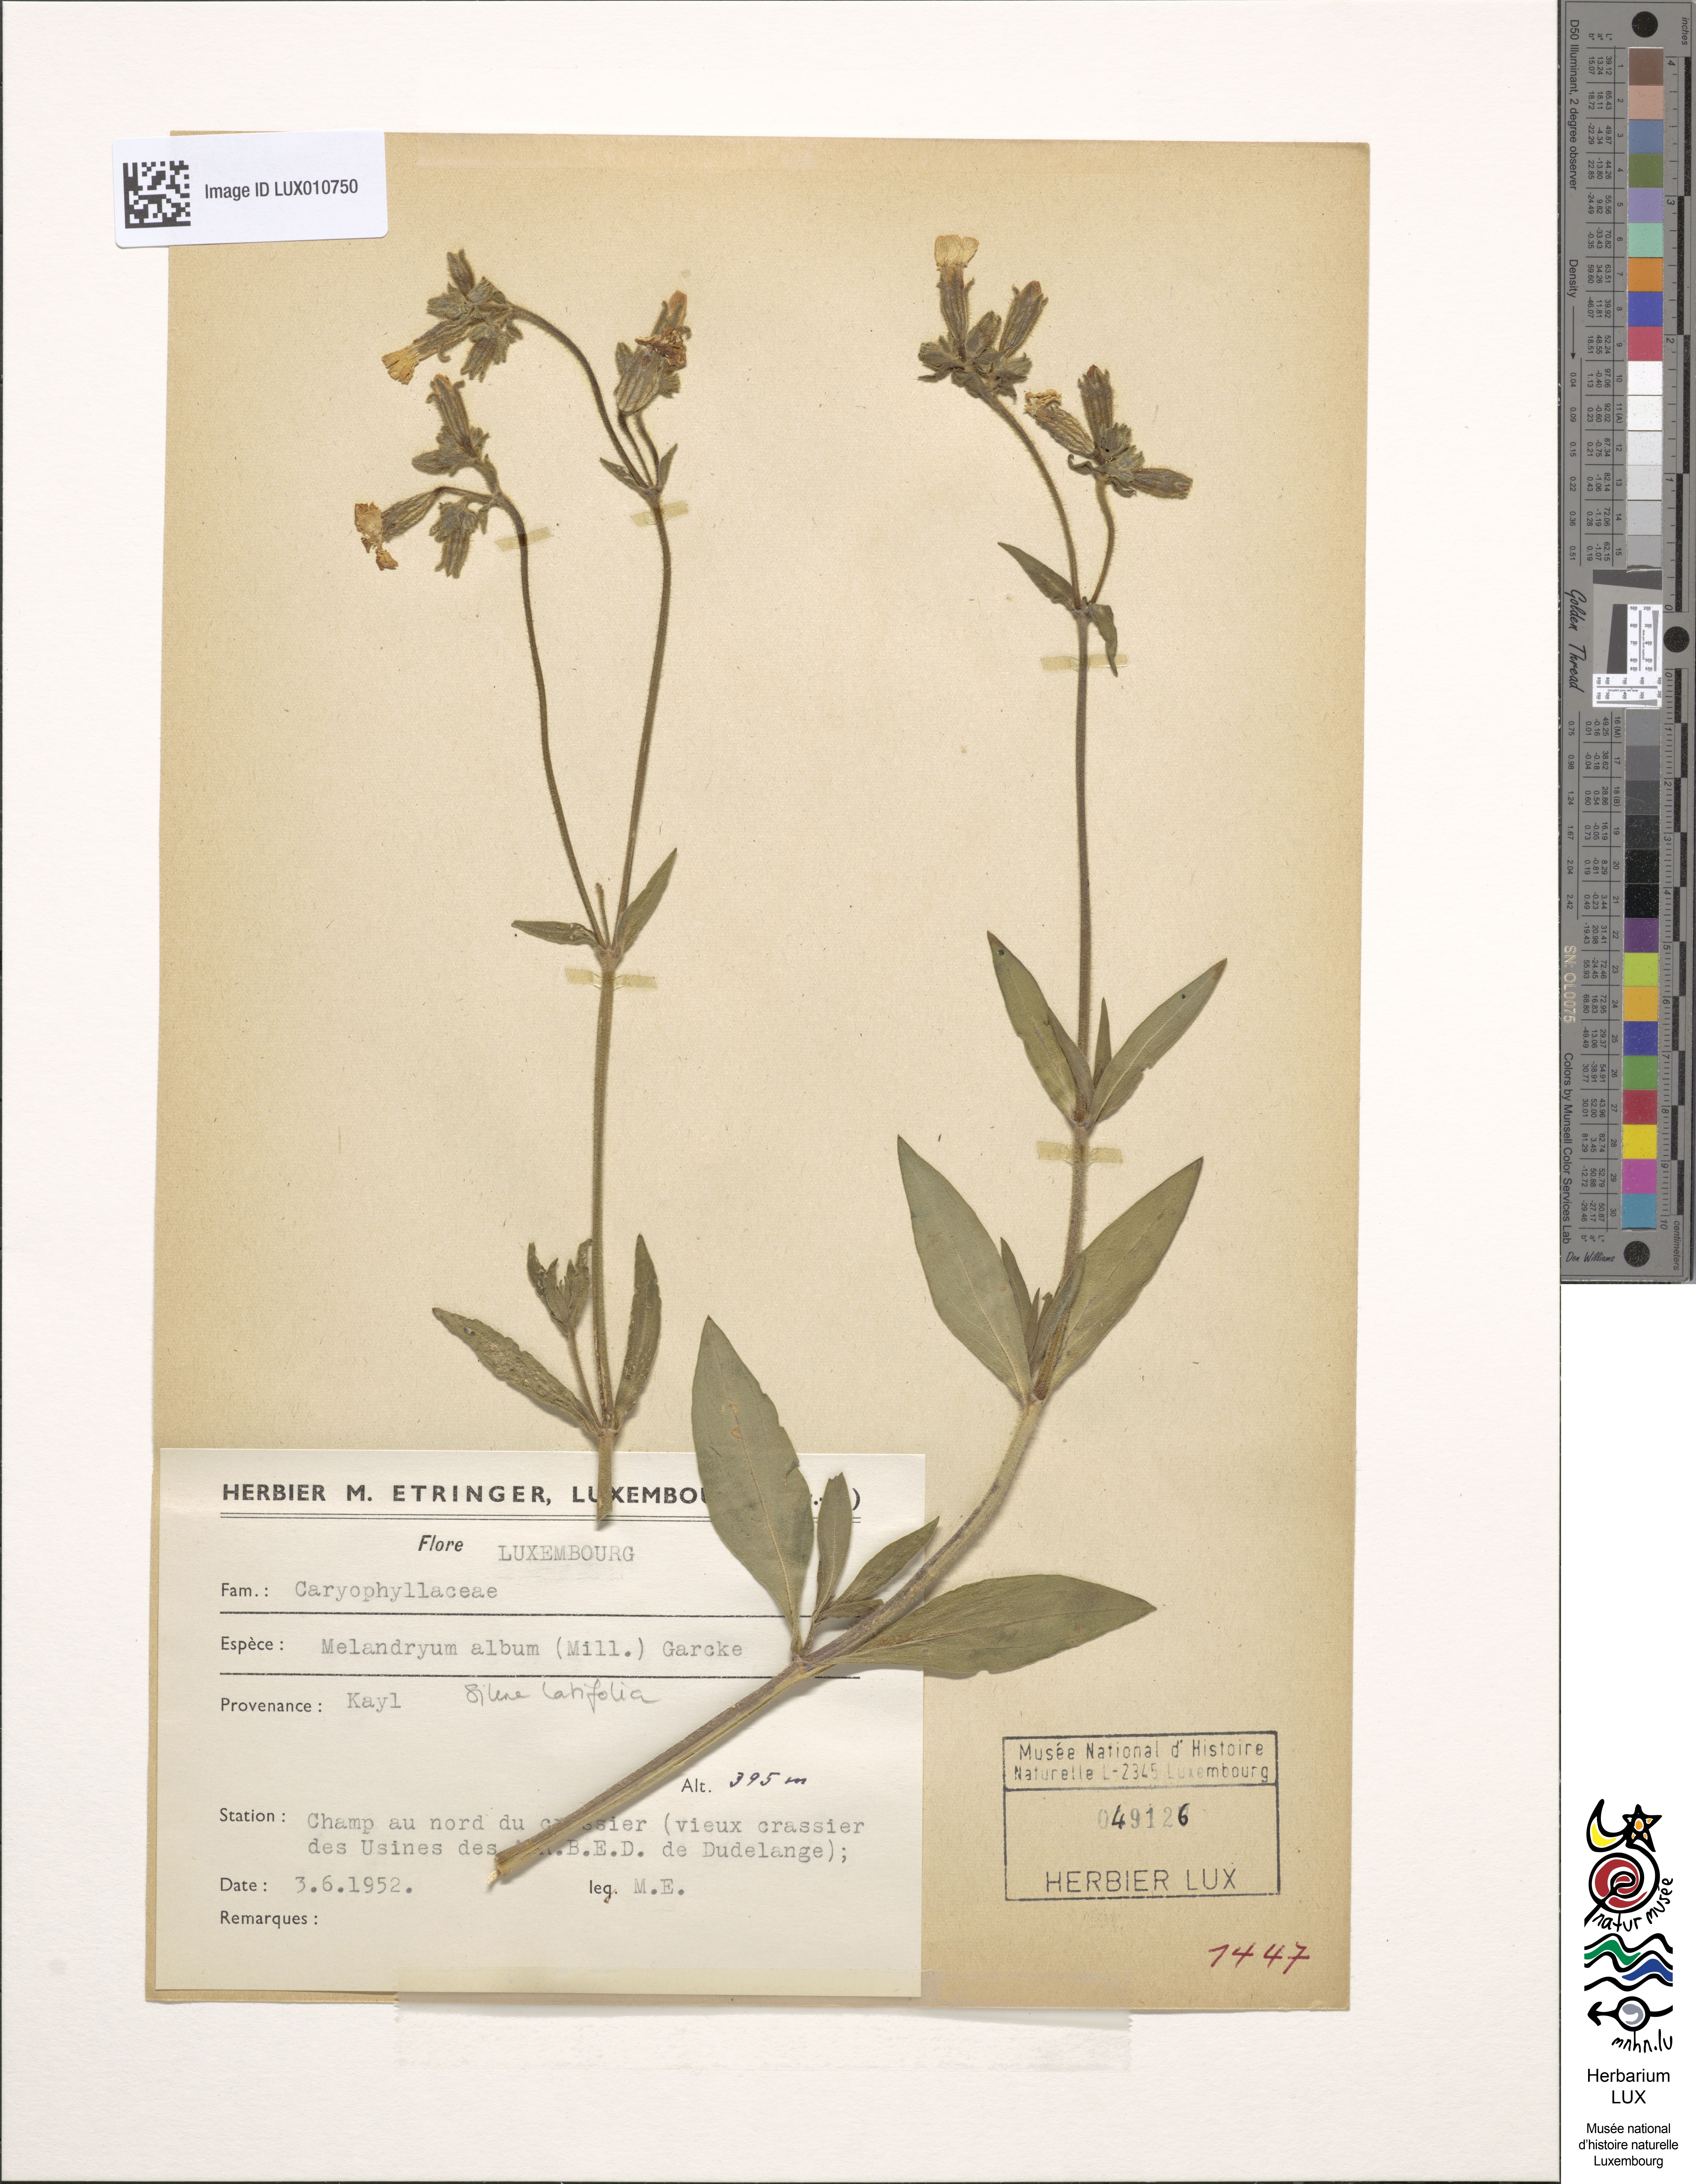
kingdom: Plantae
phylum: Tracheophyta
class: Magnoliopsida
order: Caryophyllales
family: Caryophyllaceae
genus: Silene
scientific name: Silene latifolia
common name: White campion
